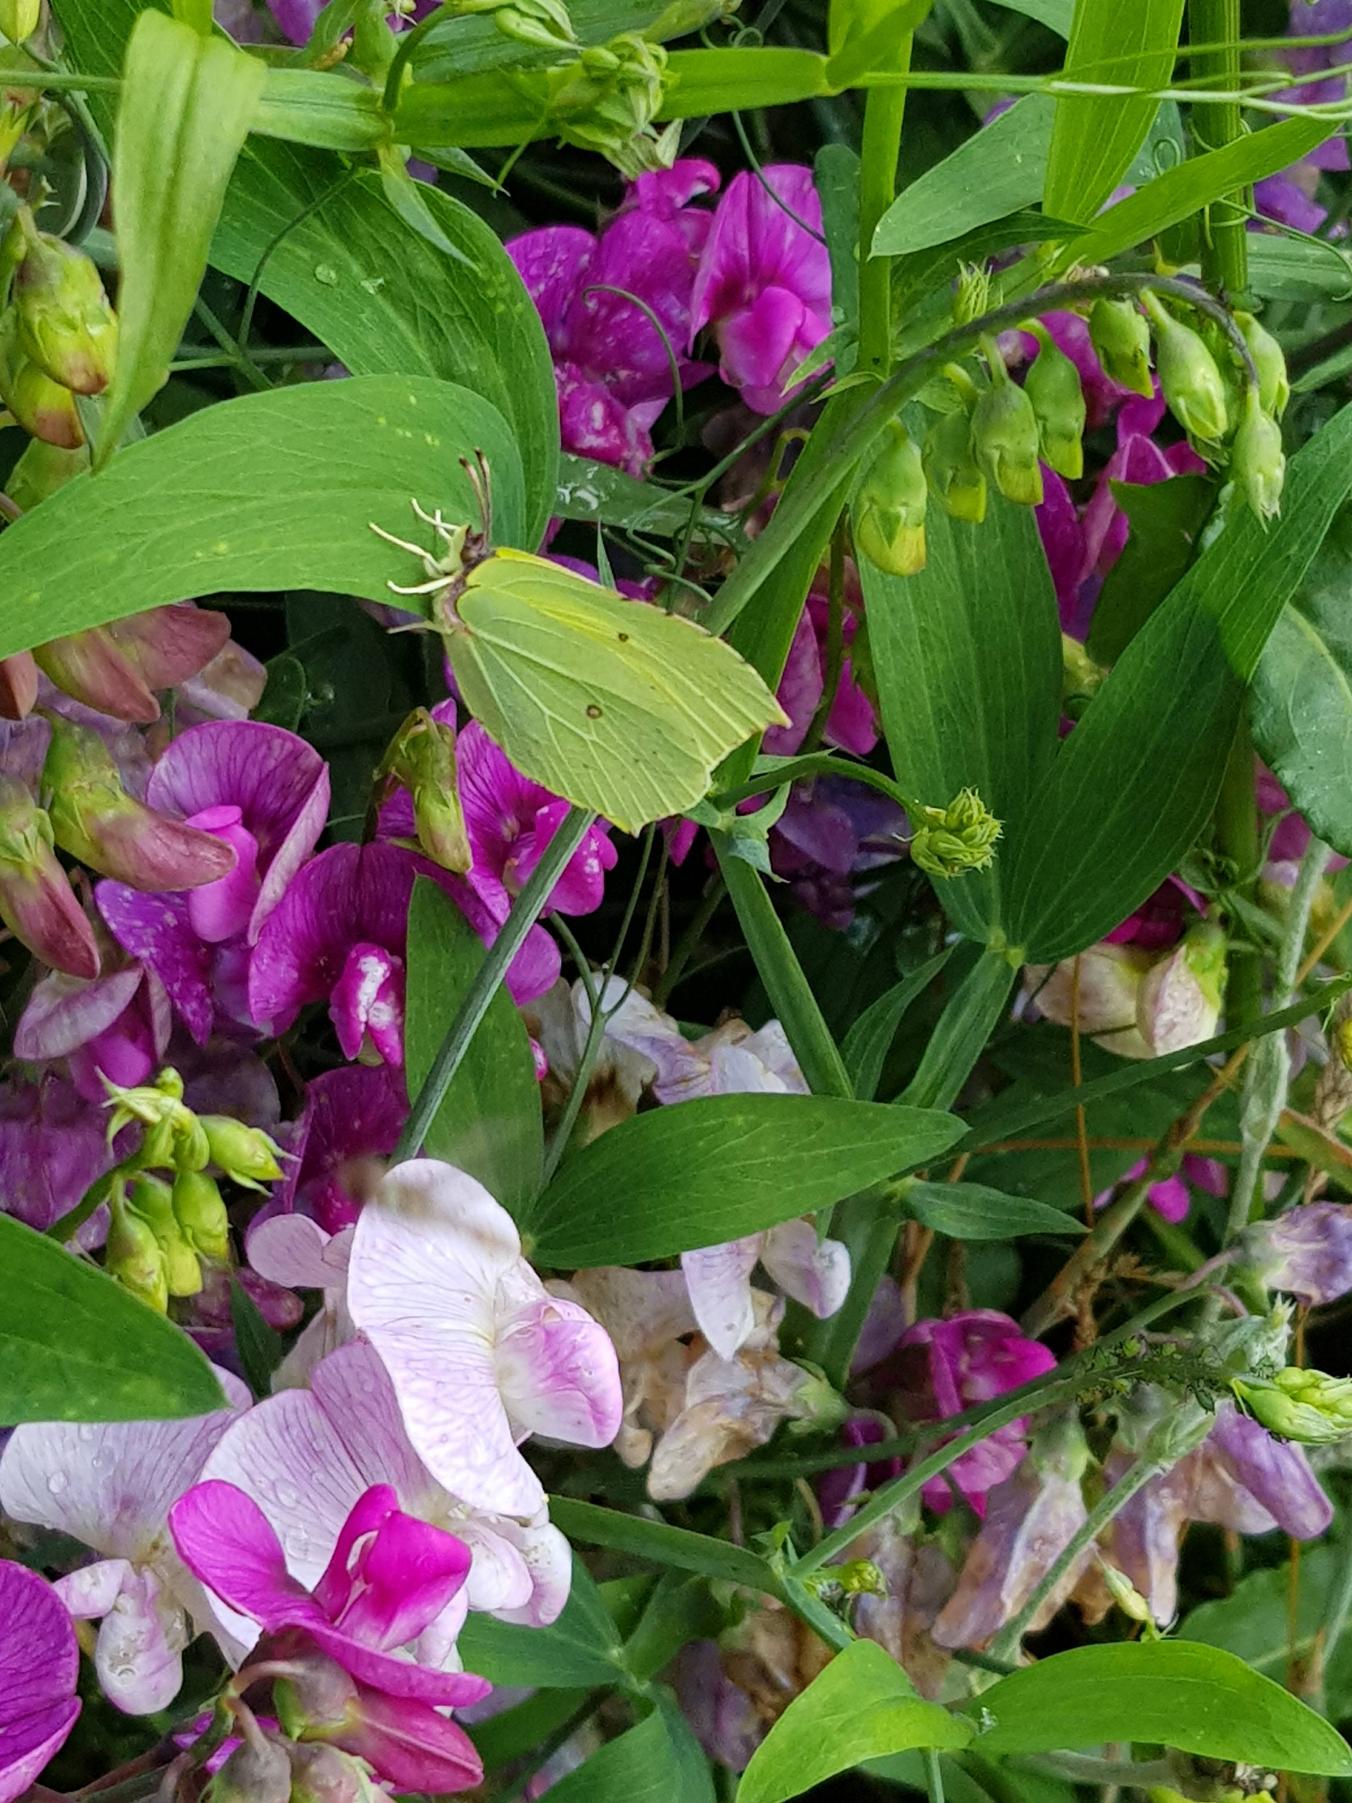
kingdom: Animalia
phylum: Arthropoda
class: Insecta
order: Lepidoptera
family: Pieridae
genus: Gonepteryx
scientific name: Gonepteryx rhamni
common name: Citronsommerfugl
